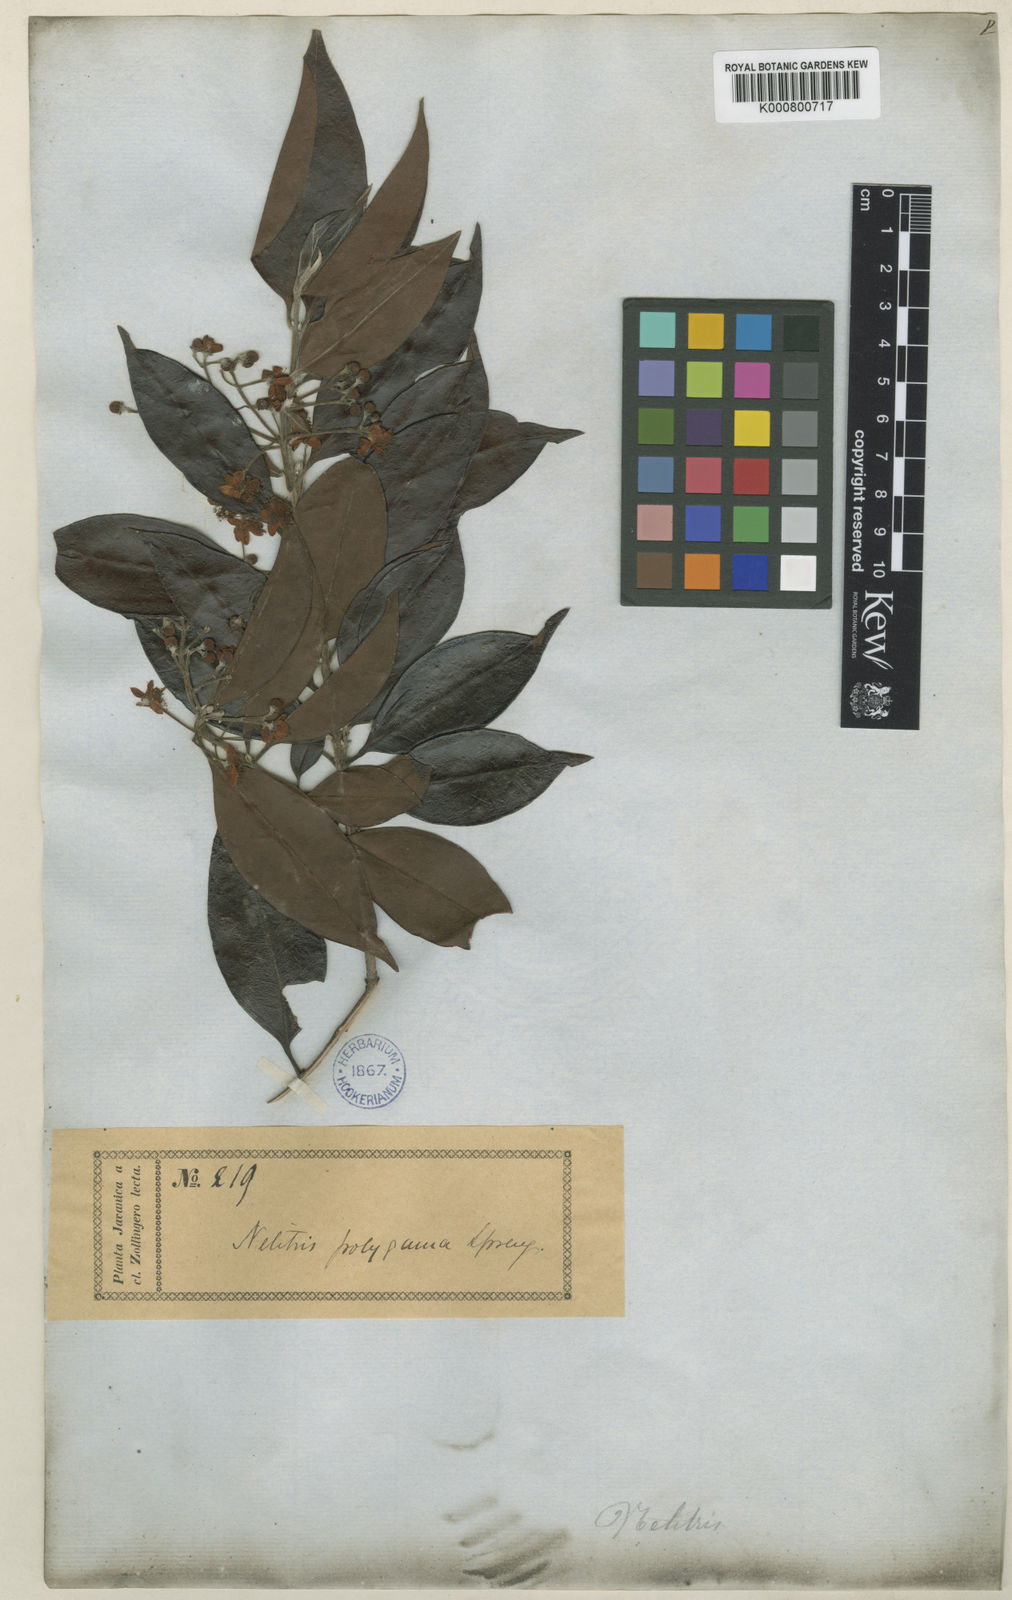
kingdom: Plantae
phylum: Tracheophyta
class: Magnoliopsida
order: Myrtales
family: Myrtaceae
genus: Decaspermum
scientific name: Decaspermum parviflorum
